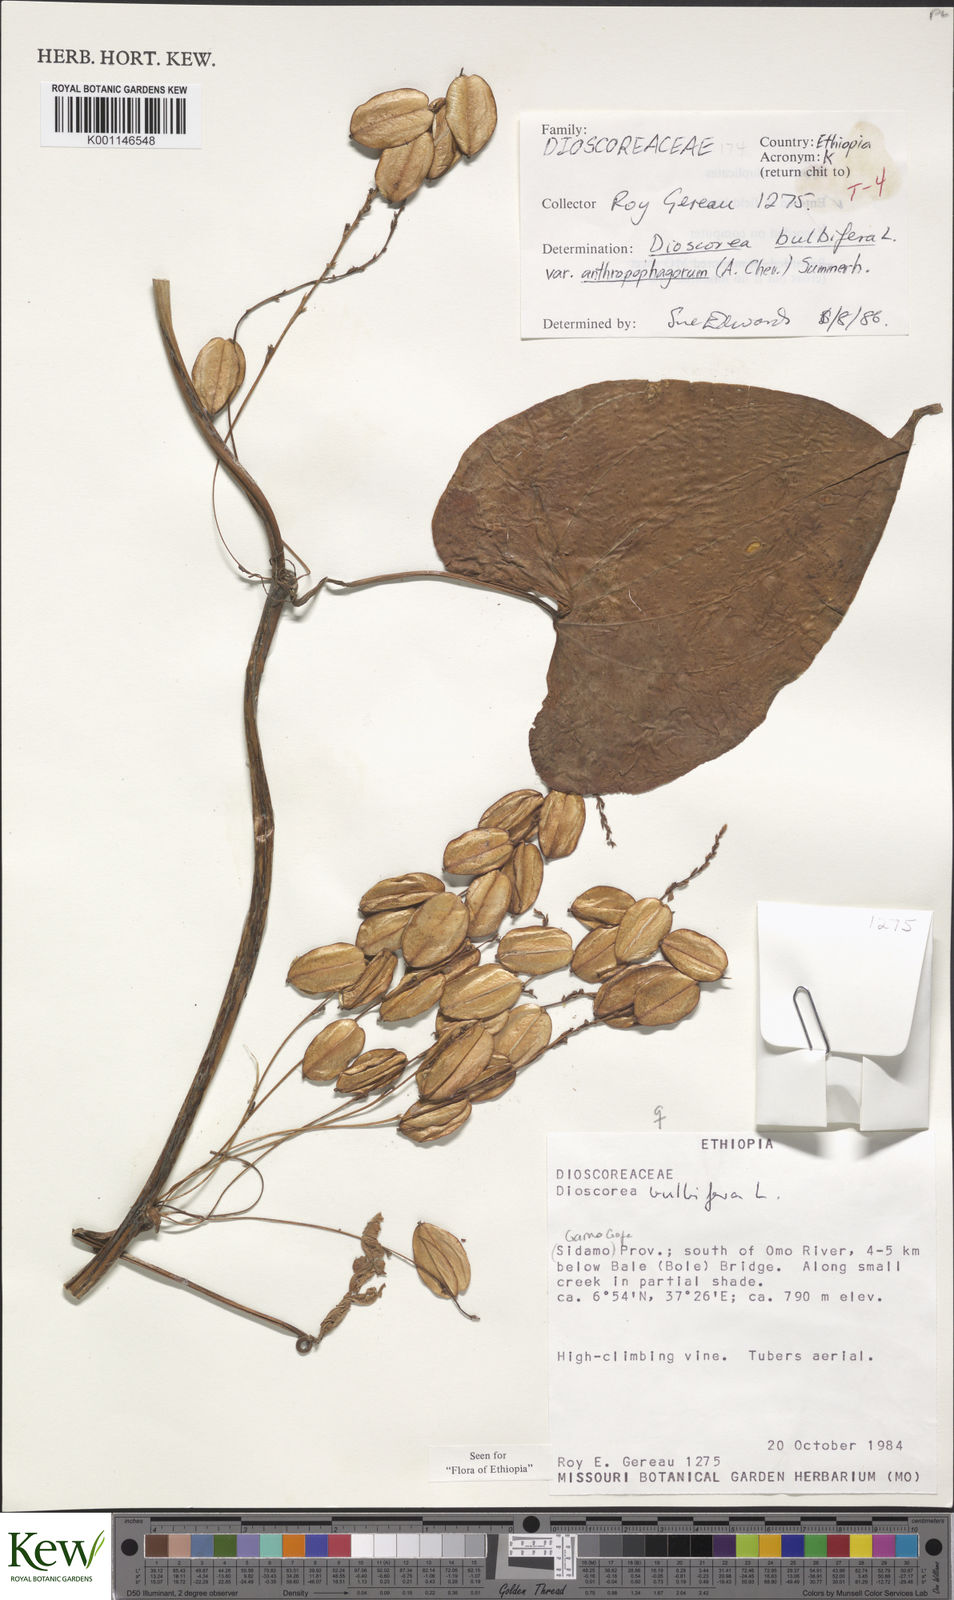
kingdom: Plantae
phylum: Tracheophyta
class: Liliopsida
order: Dioscoreales
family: Dioscoreaceae
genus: Dioscorea
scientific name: Dioscorea bulbifera
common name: Air yam
